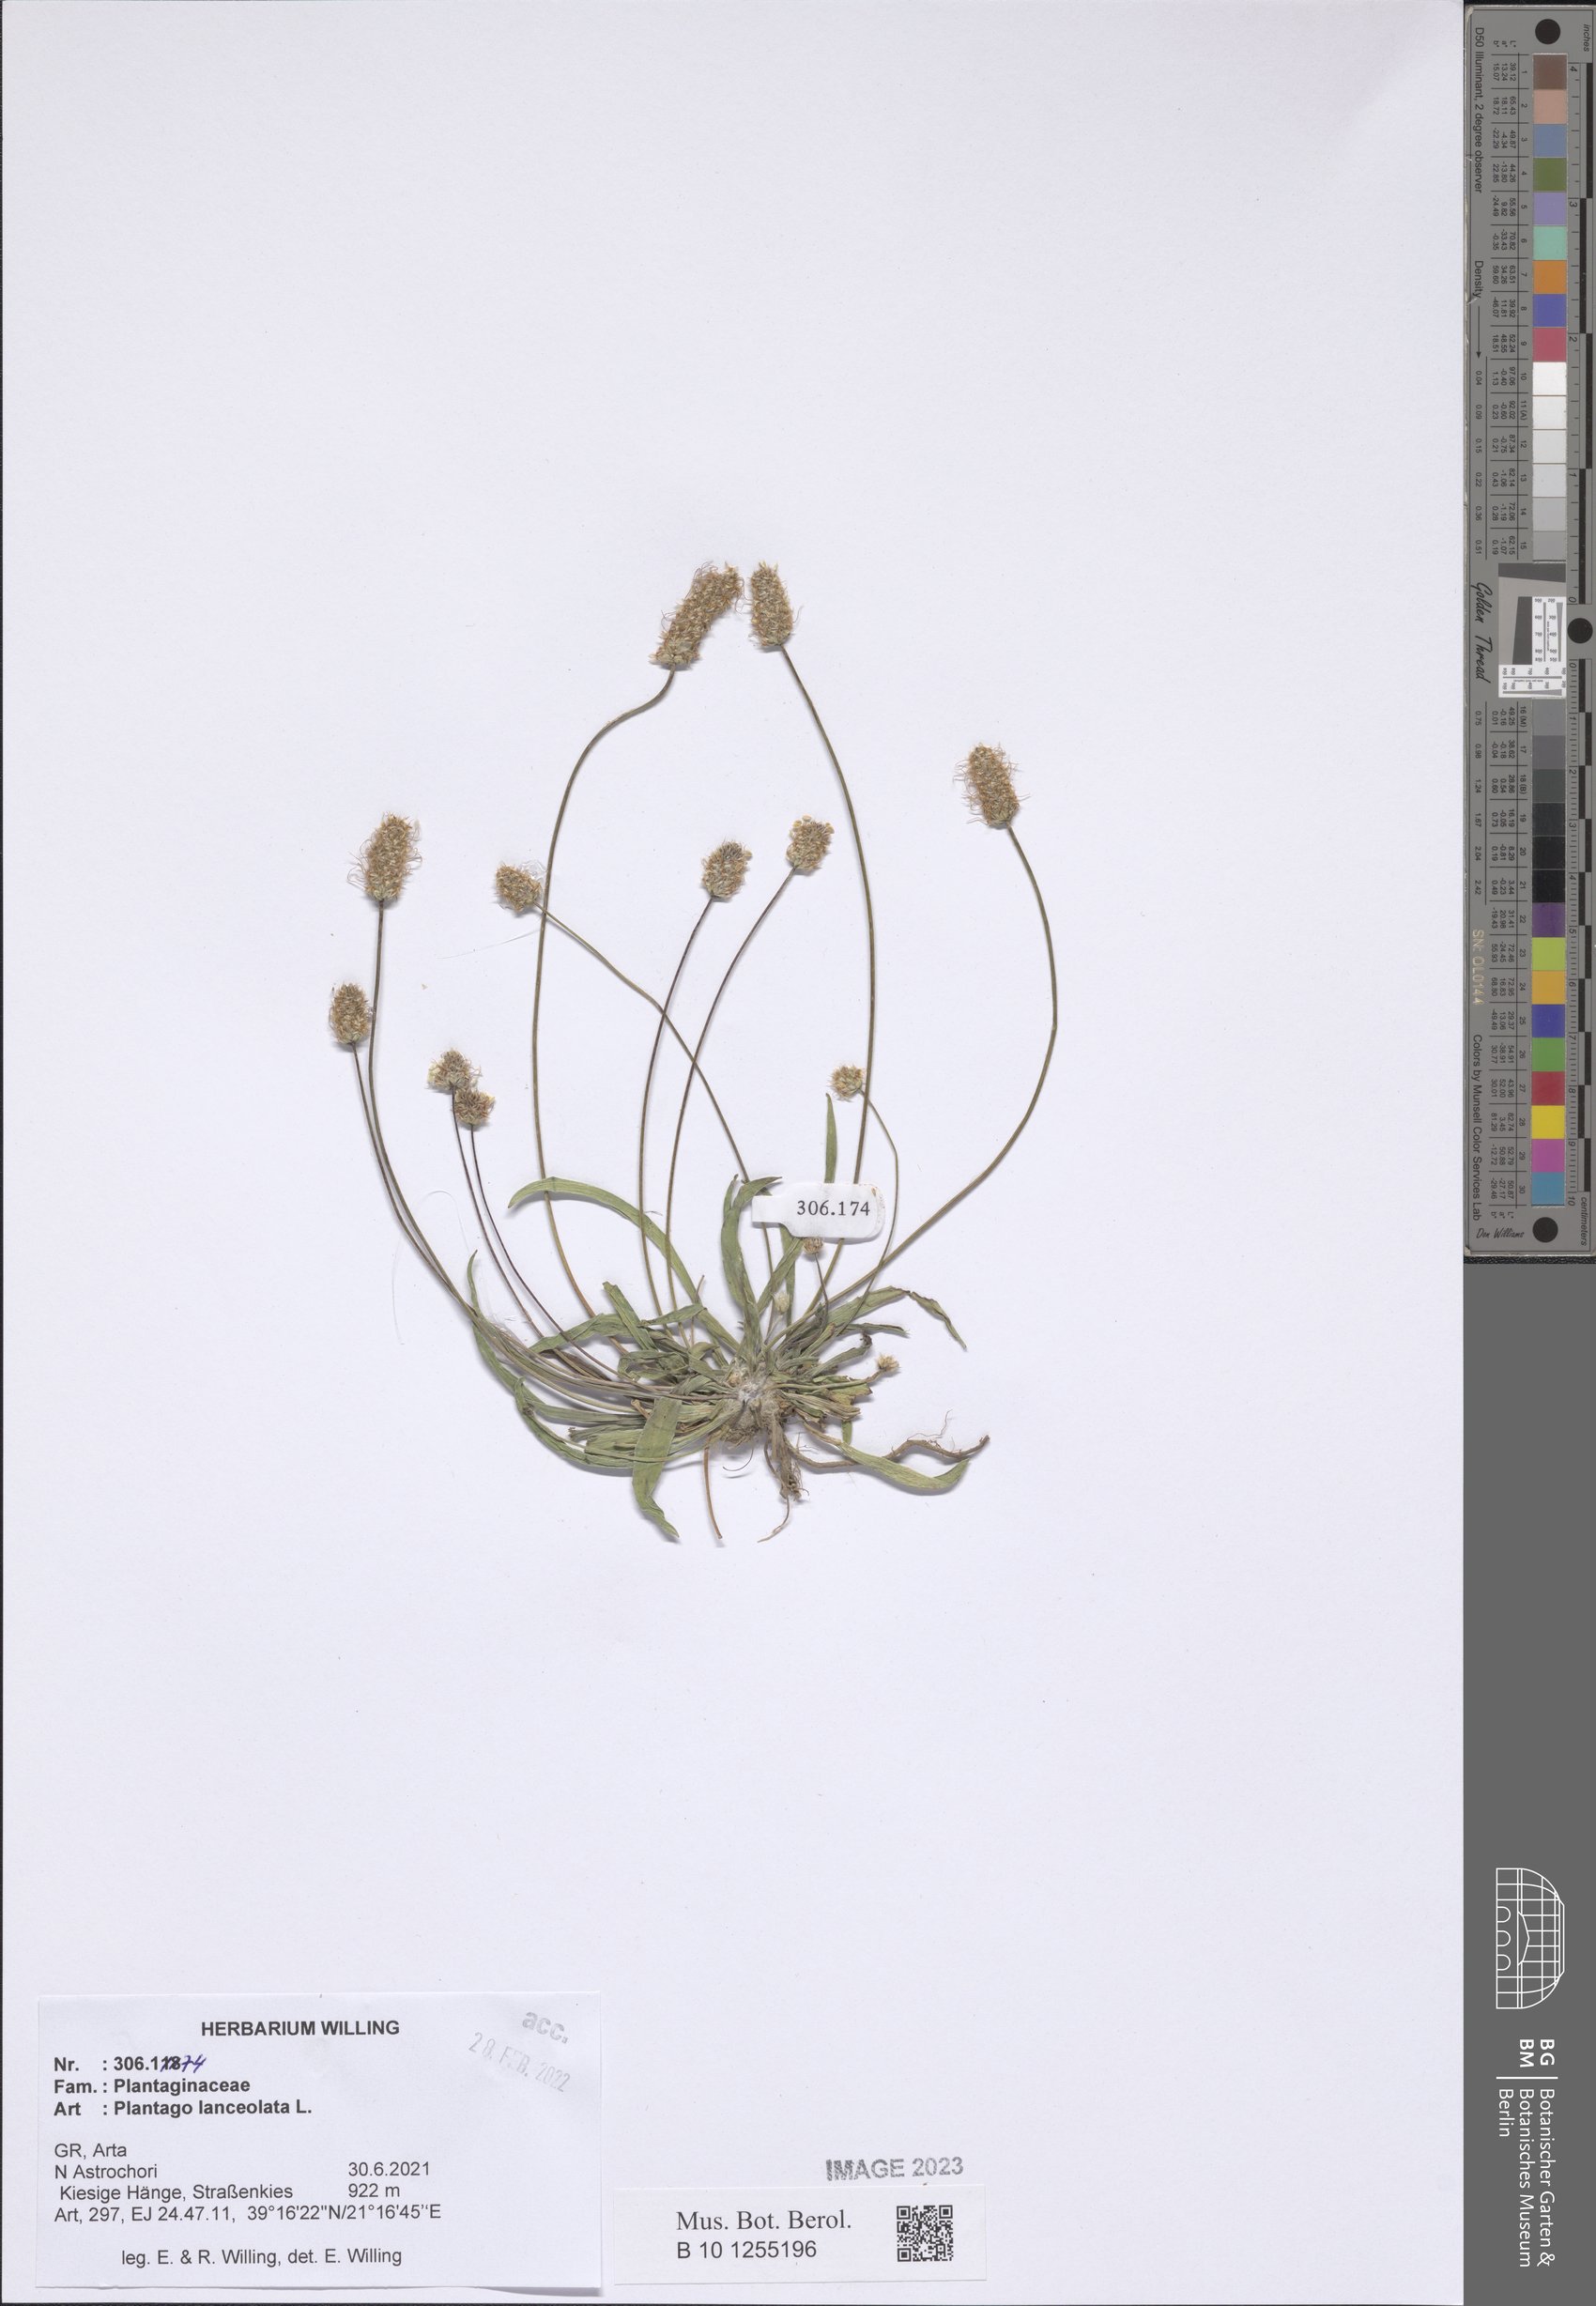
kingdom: Plantae
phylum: Tracheophyta
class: Magnoliopsida
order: Lamiales
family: Plantaginaceae
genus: Plantago
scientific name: Plantago lanceolata
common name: Ribwort plantain
